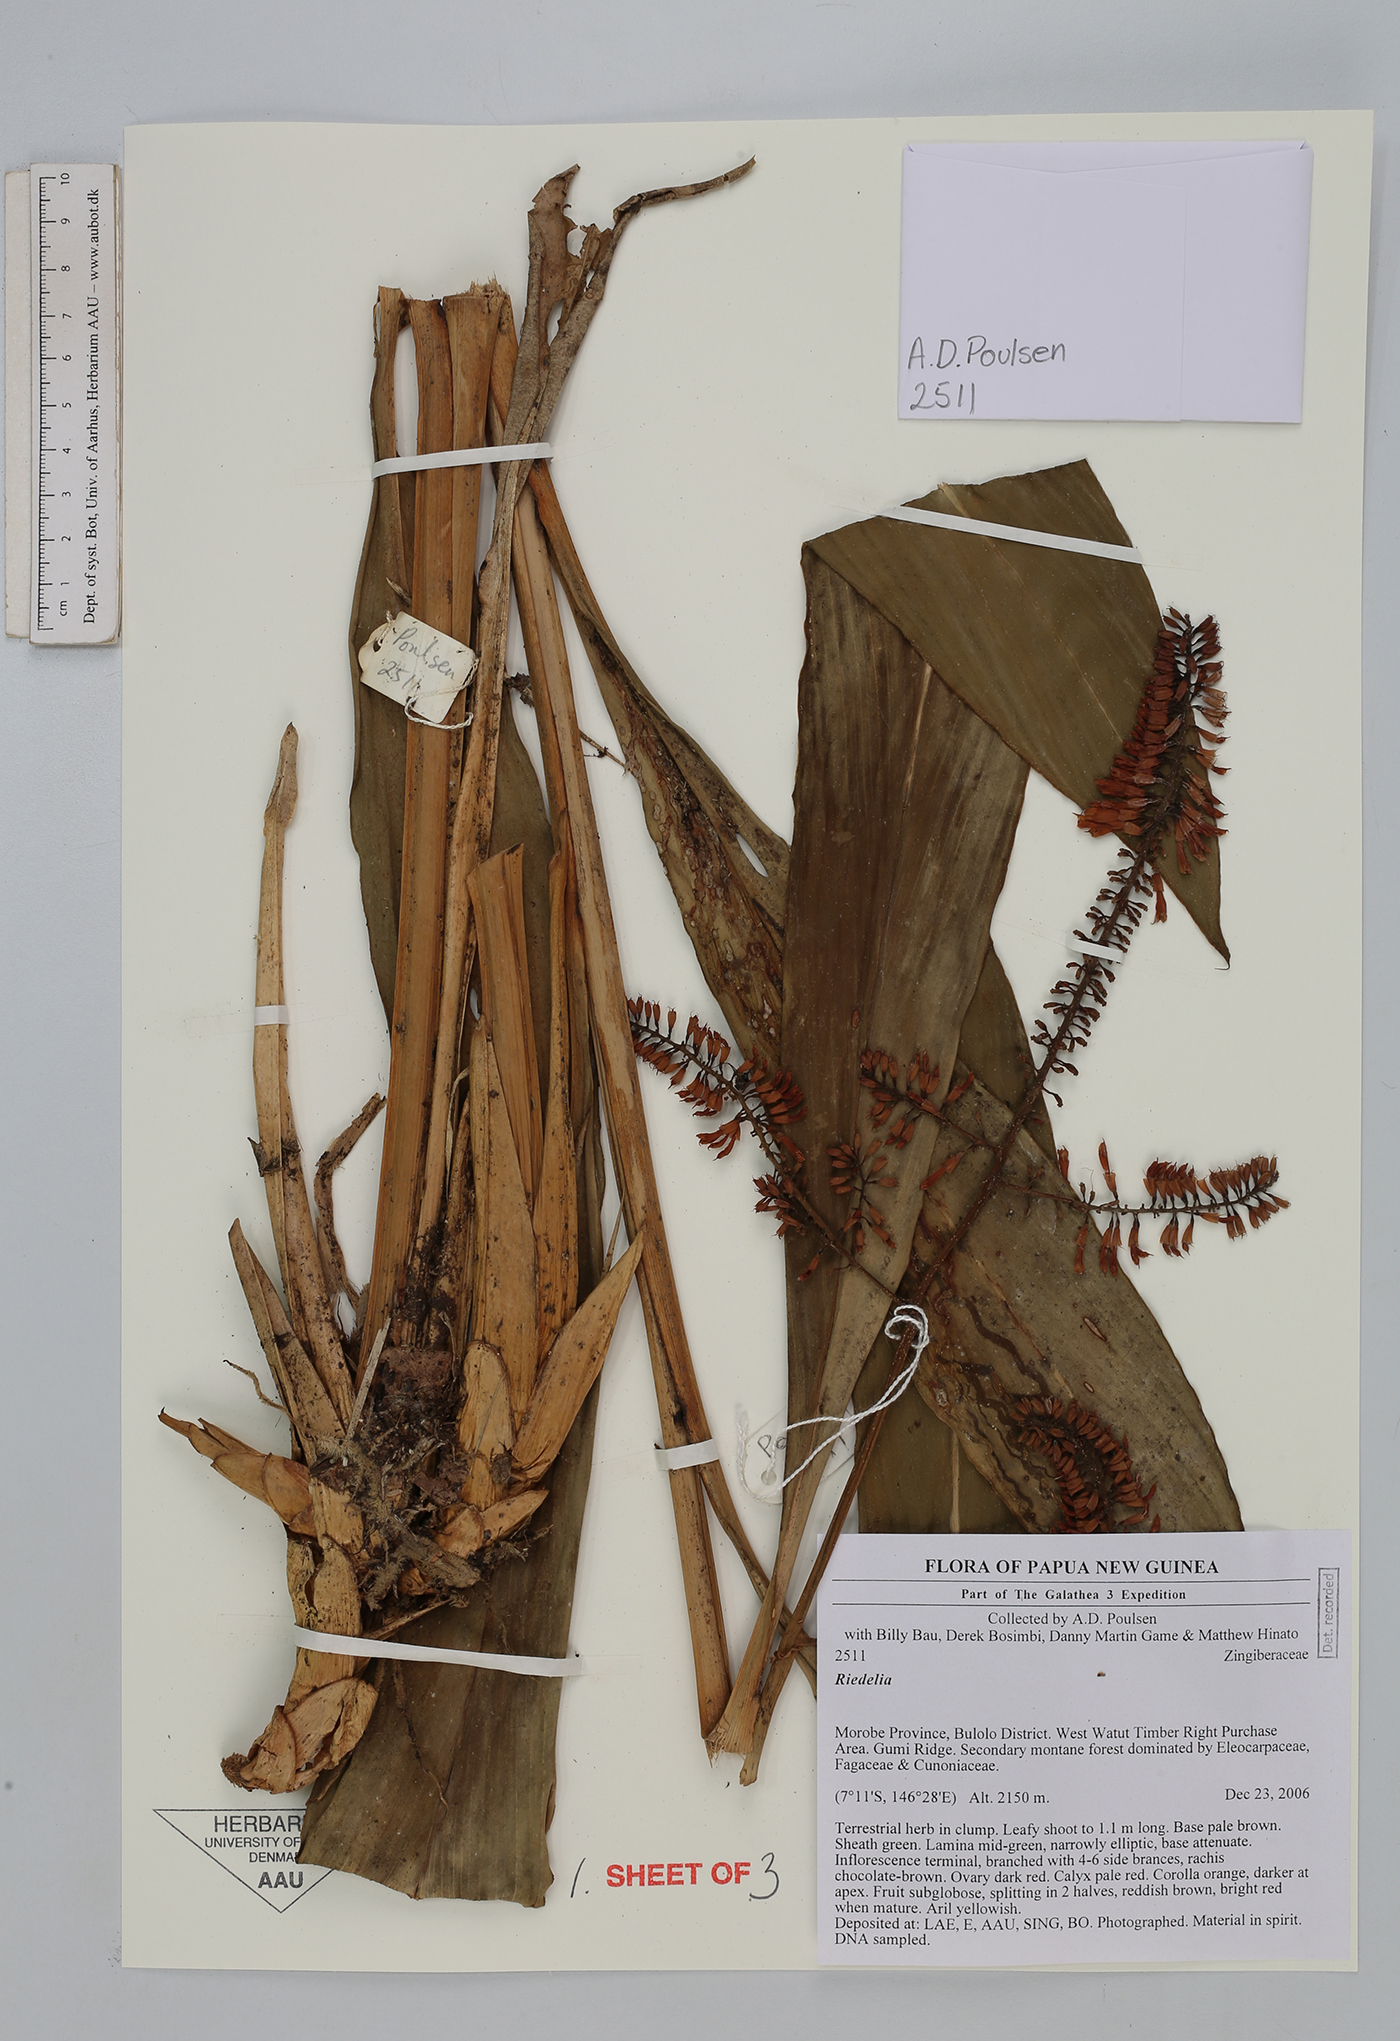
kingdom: Plantae
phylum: Tracheophyta
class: Liliopsida
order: Zingiberales
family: Zingiberaceae
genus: Riedelia
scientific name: Riedelia
